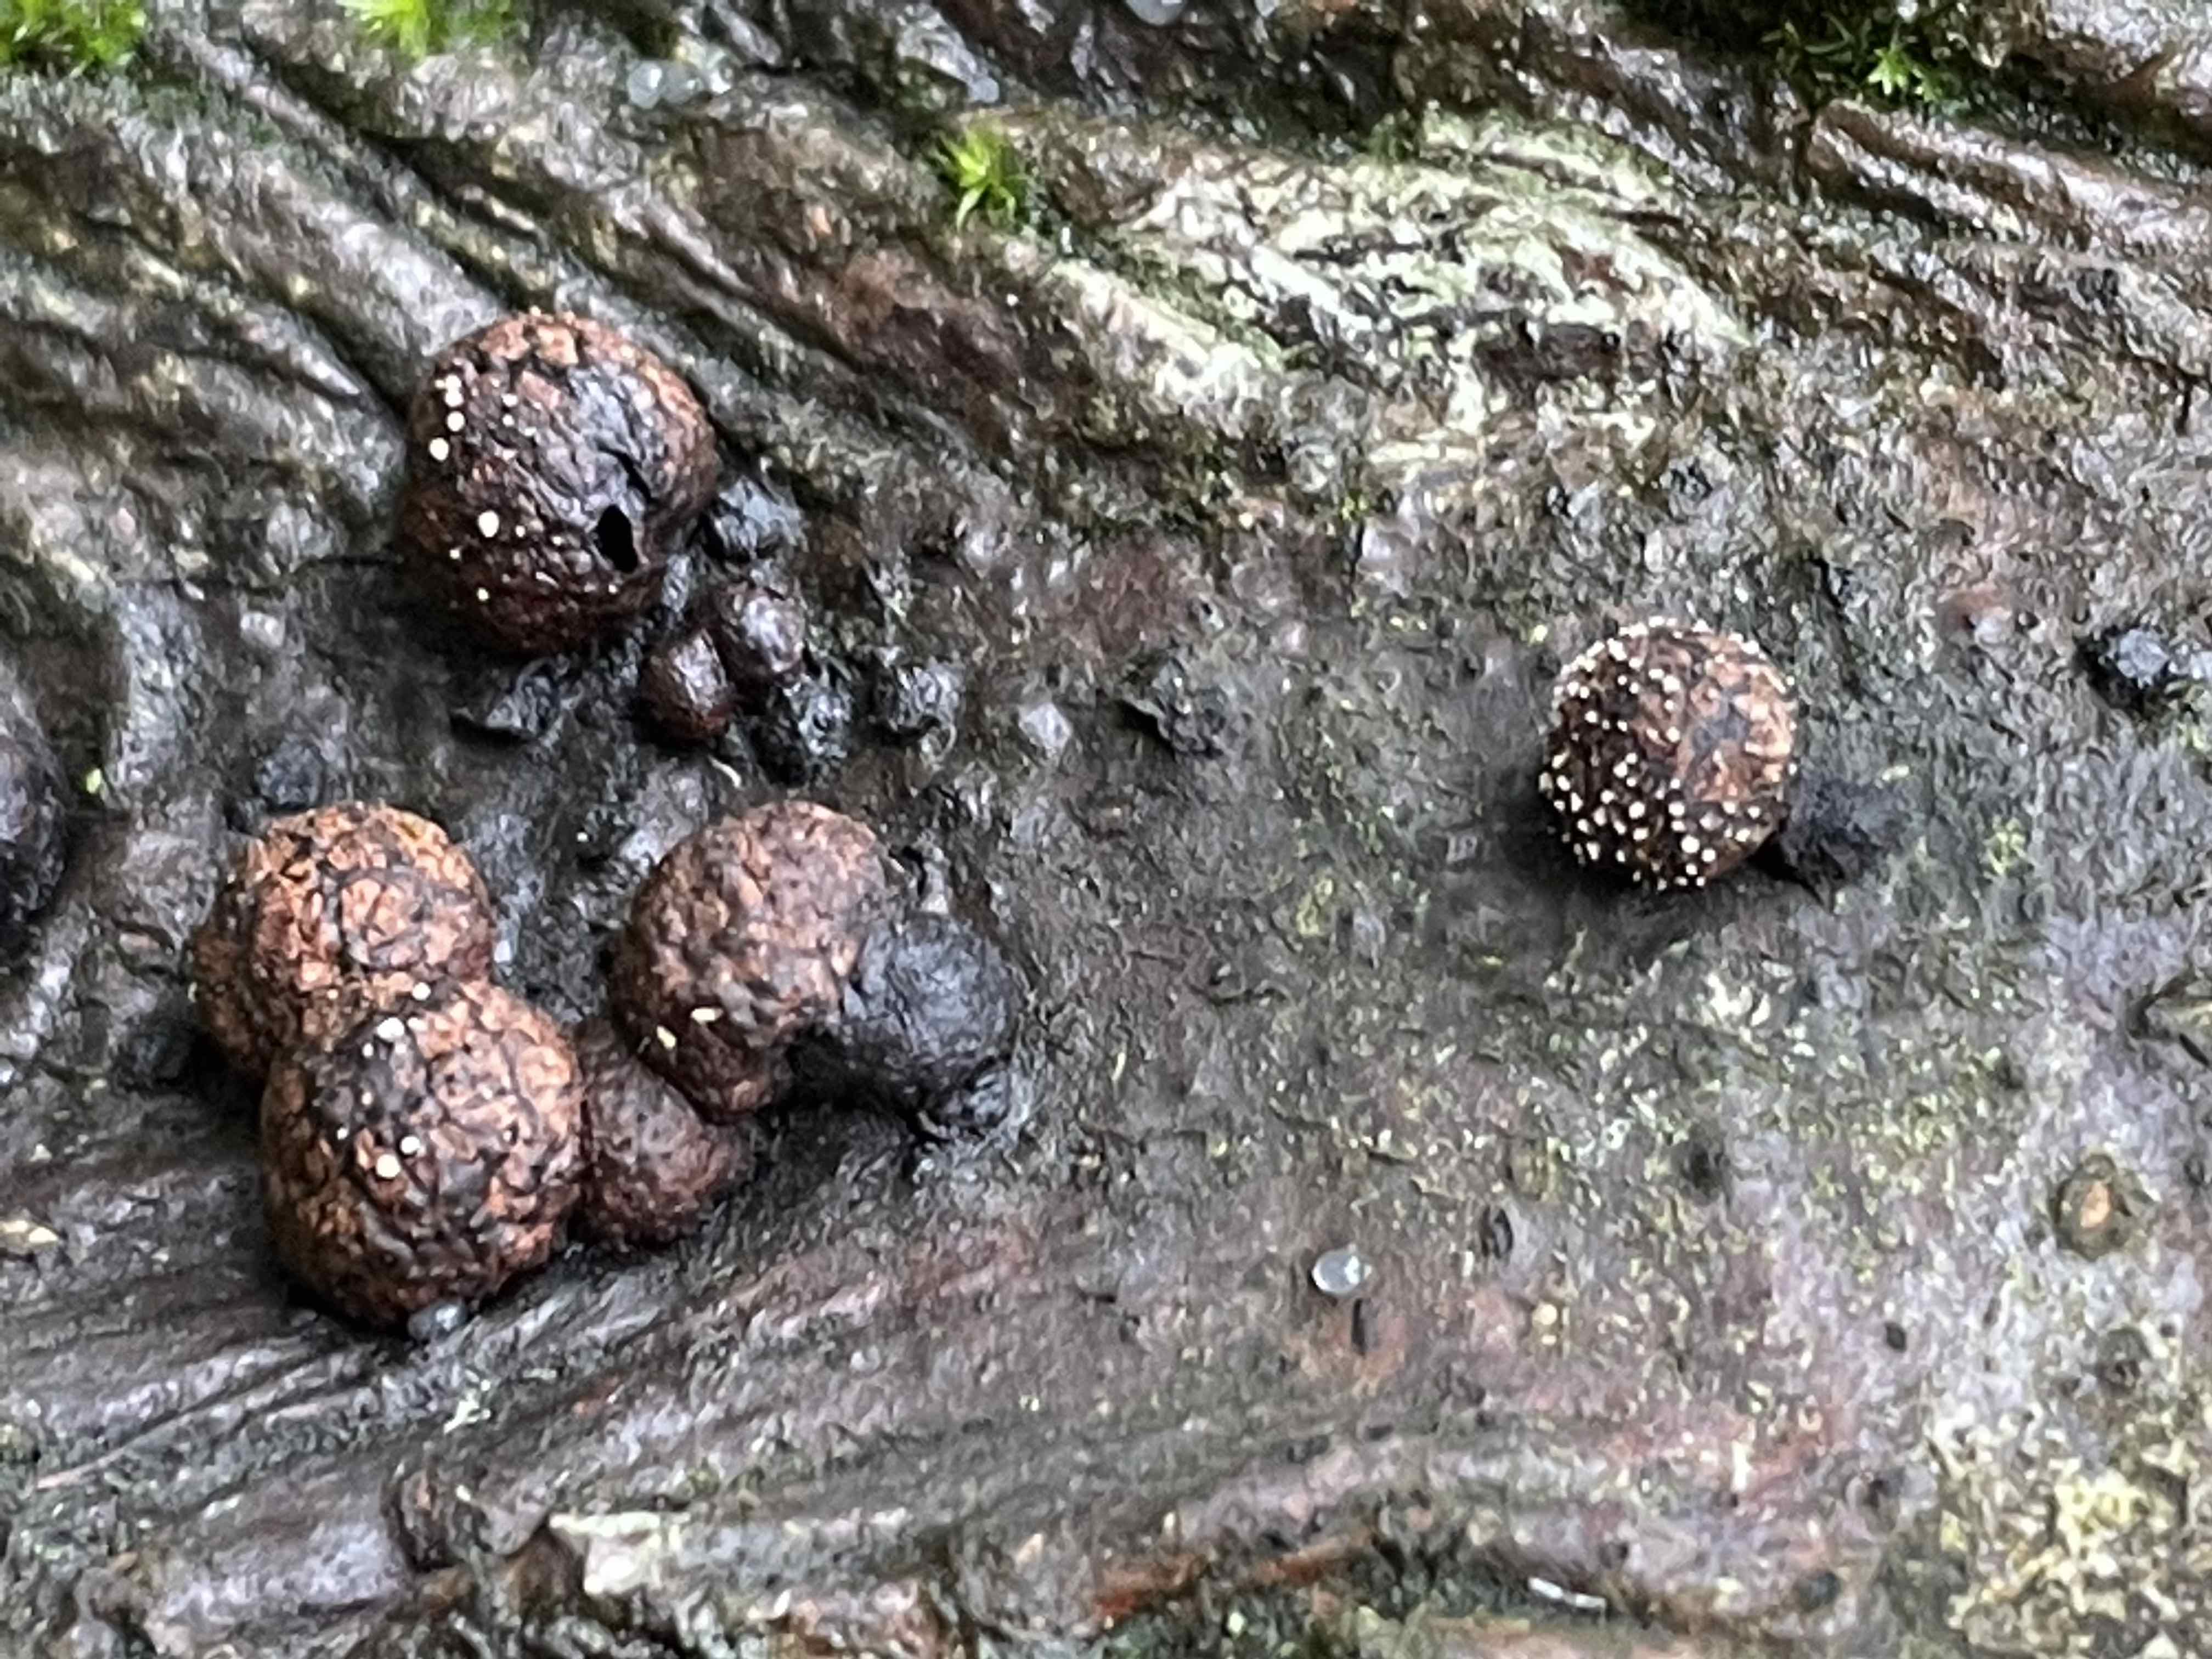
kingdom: Fungi
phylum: Ascomycota
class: Sordariomycetes
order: Xylariales
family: Hypoxylaceae
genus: Hypoxylon
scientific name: Hypoxylon fragiforme
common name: kuljordbær
